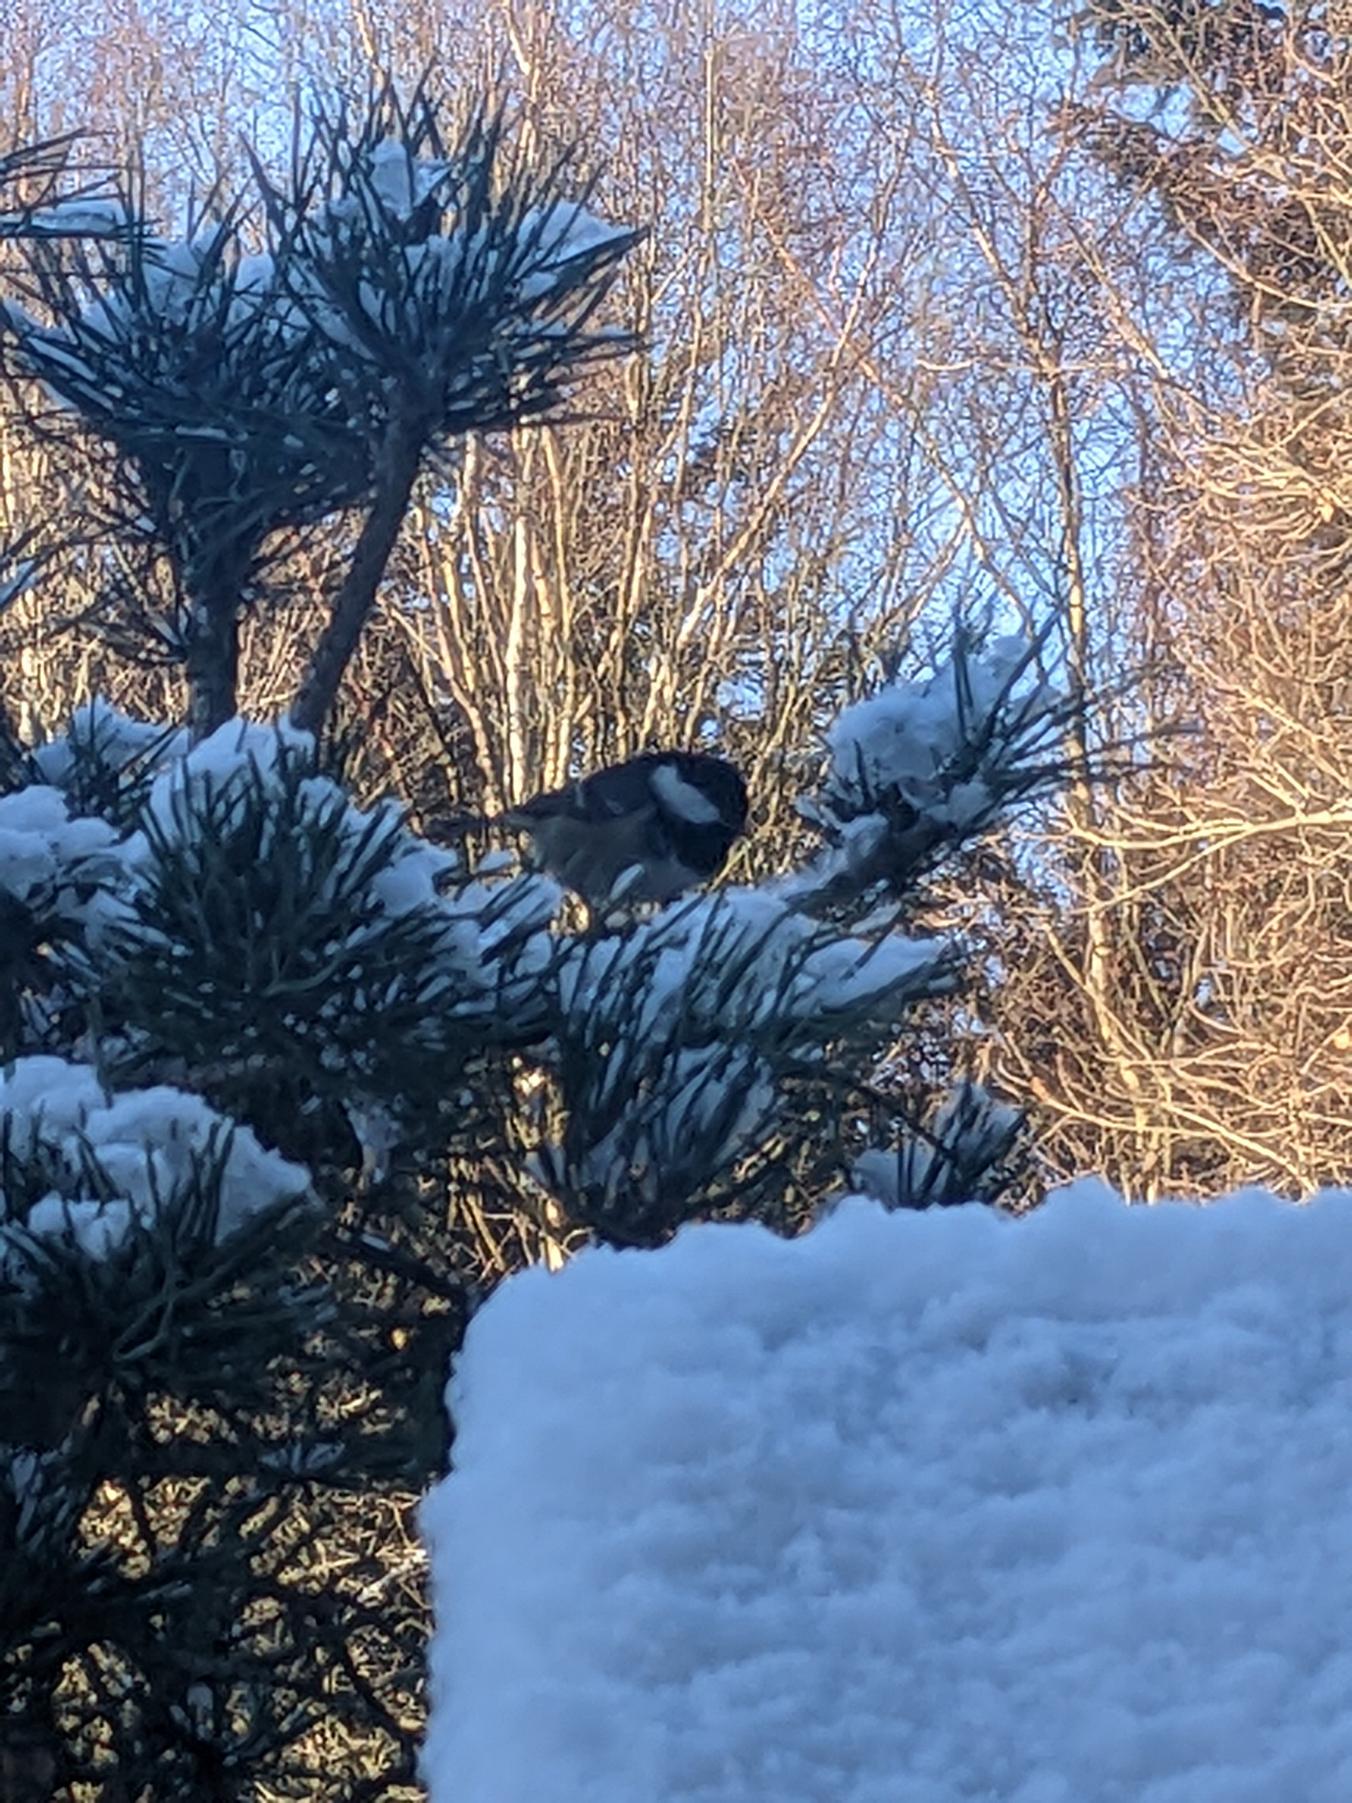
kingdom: Animalia
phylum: Chordata
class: Aves
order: Passeriformes
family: Paridae
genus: Periparus
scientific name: Periparus ater
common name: Sortmejse
